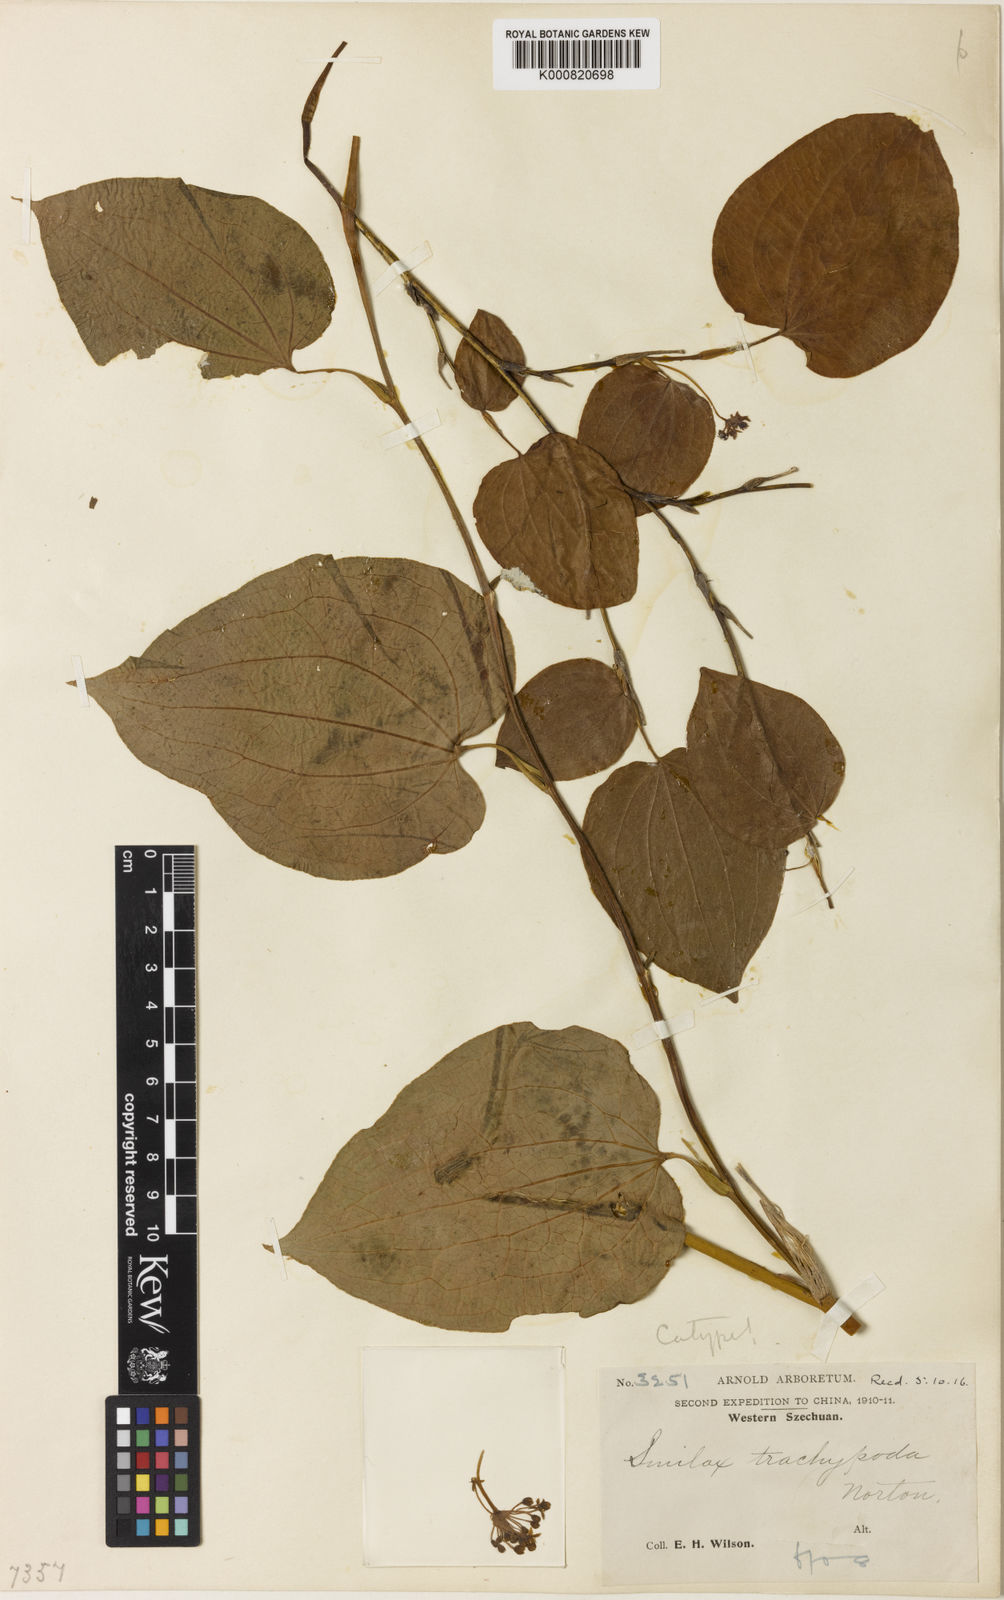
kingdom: Plantae
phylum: Tracheophyta
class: Liliopsida
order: Liliales
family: Smilacaceae
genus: Smilax
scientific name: Smilax trachypoda
